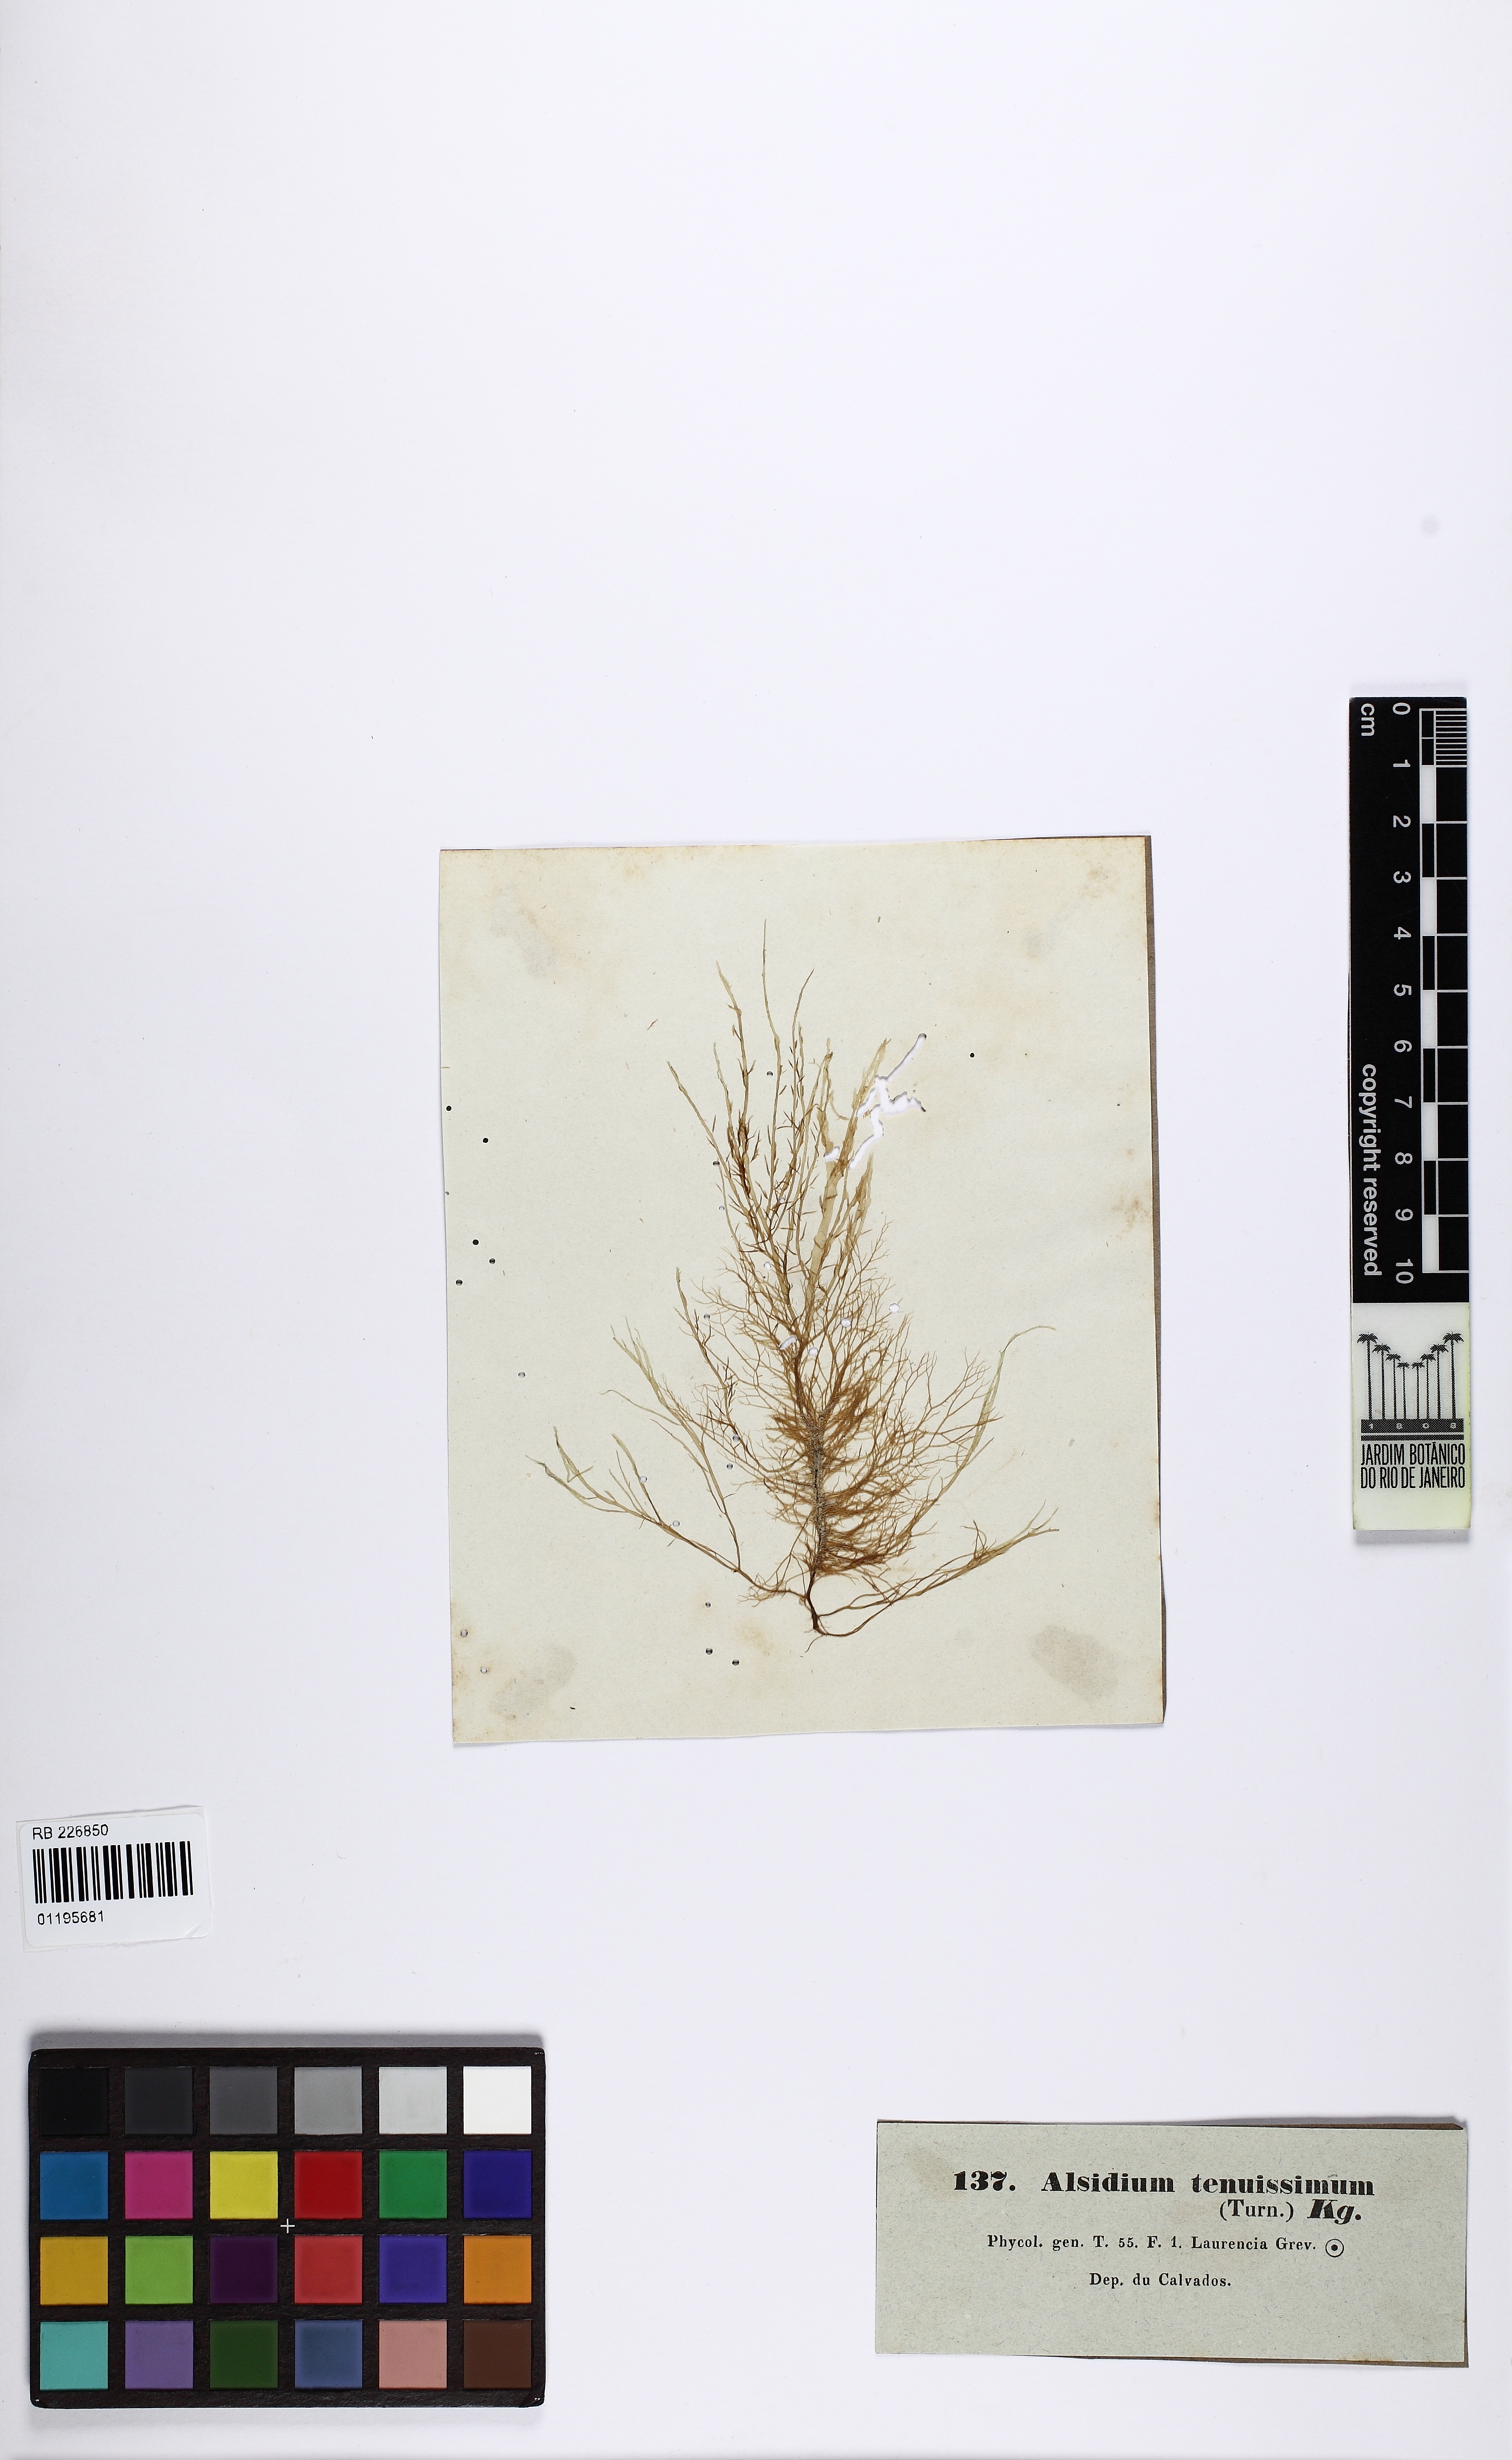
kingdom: Plantae
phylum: Rhodophyta
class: Florideophyceae
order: Ceramiales
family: Rhodomelaceae
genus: Alsidium
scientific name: Alsidium
